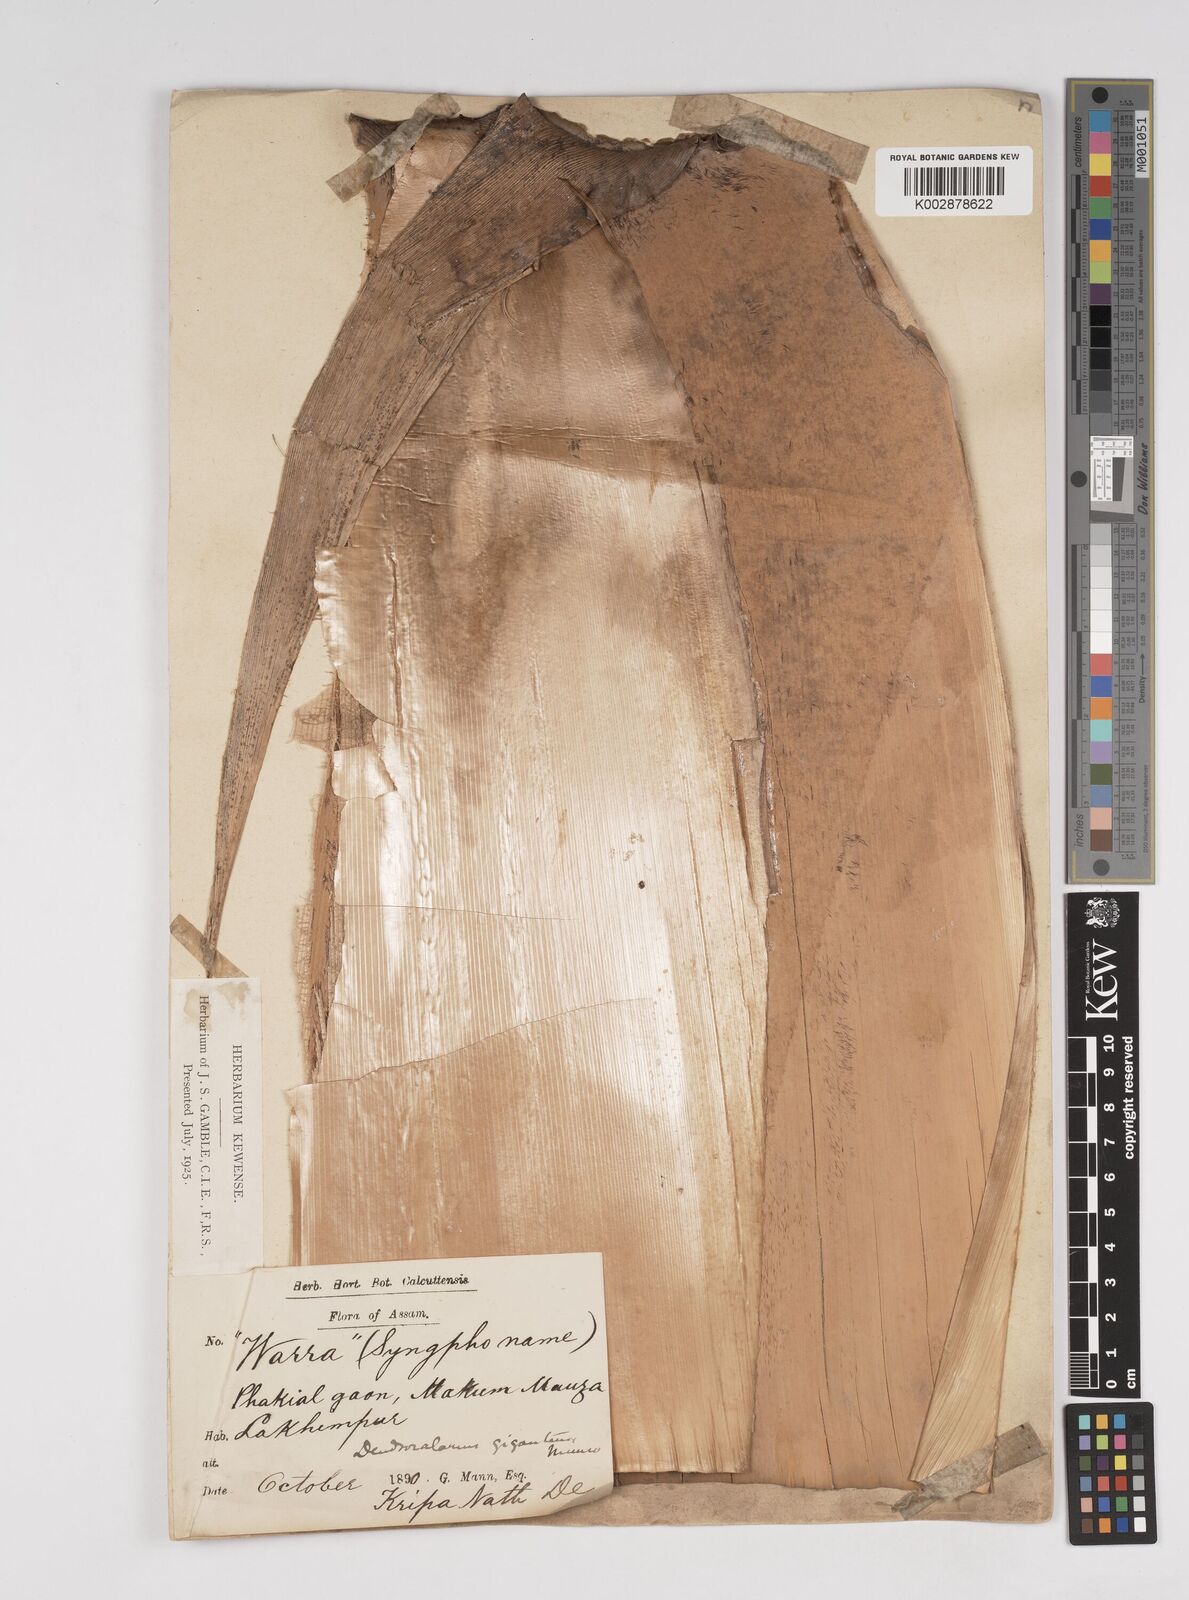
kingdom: Plantae
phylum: Tracheophyta
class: Liliopsida
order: Poales
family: Poaceae
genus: Dendrocalamus
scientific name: Dendrocalamus giganteus
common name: Giant bamboo
